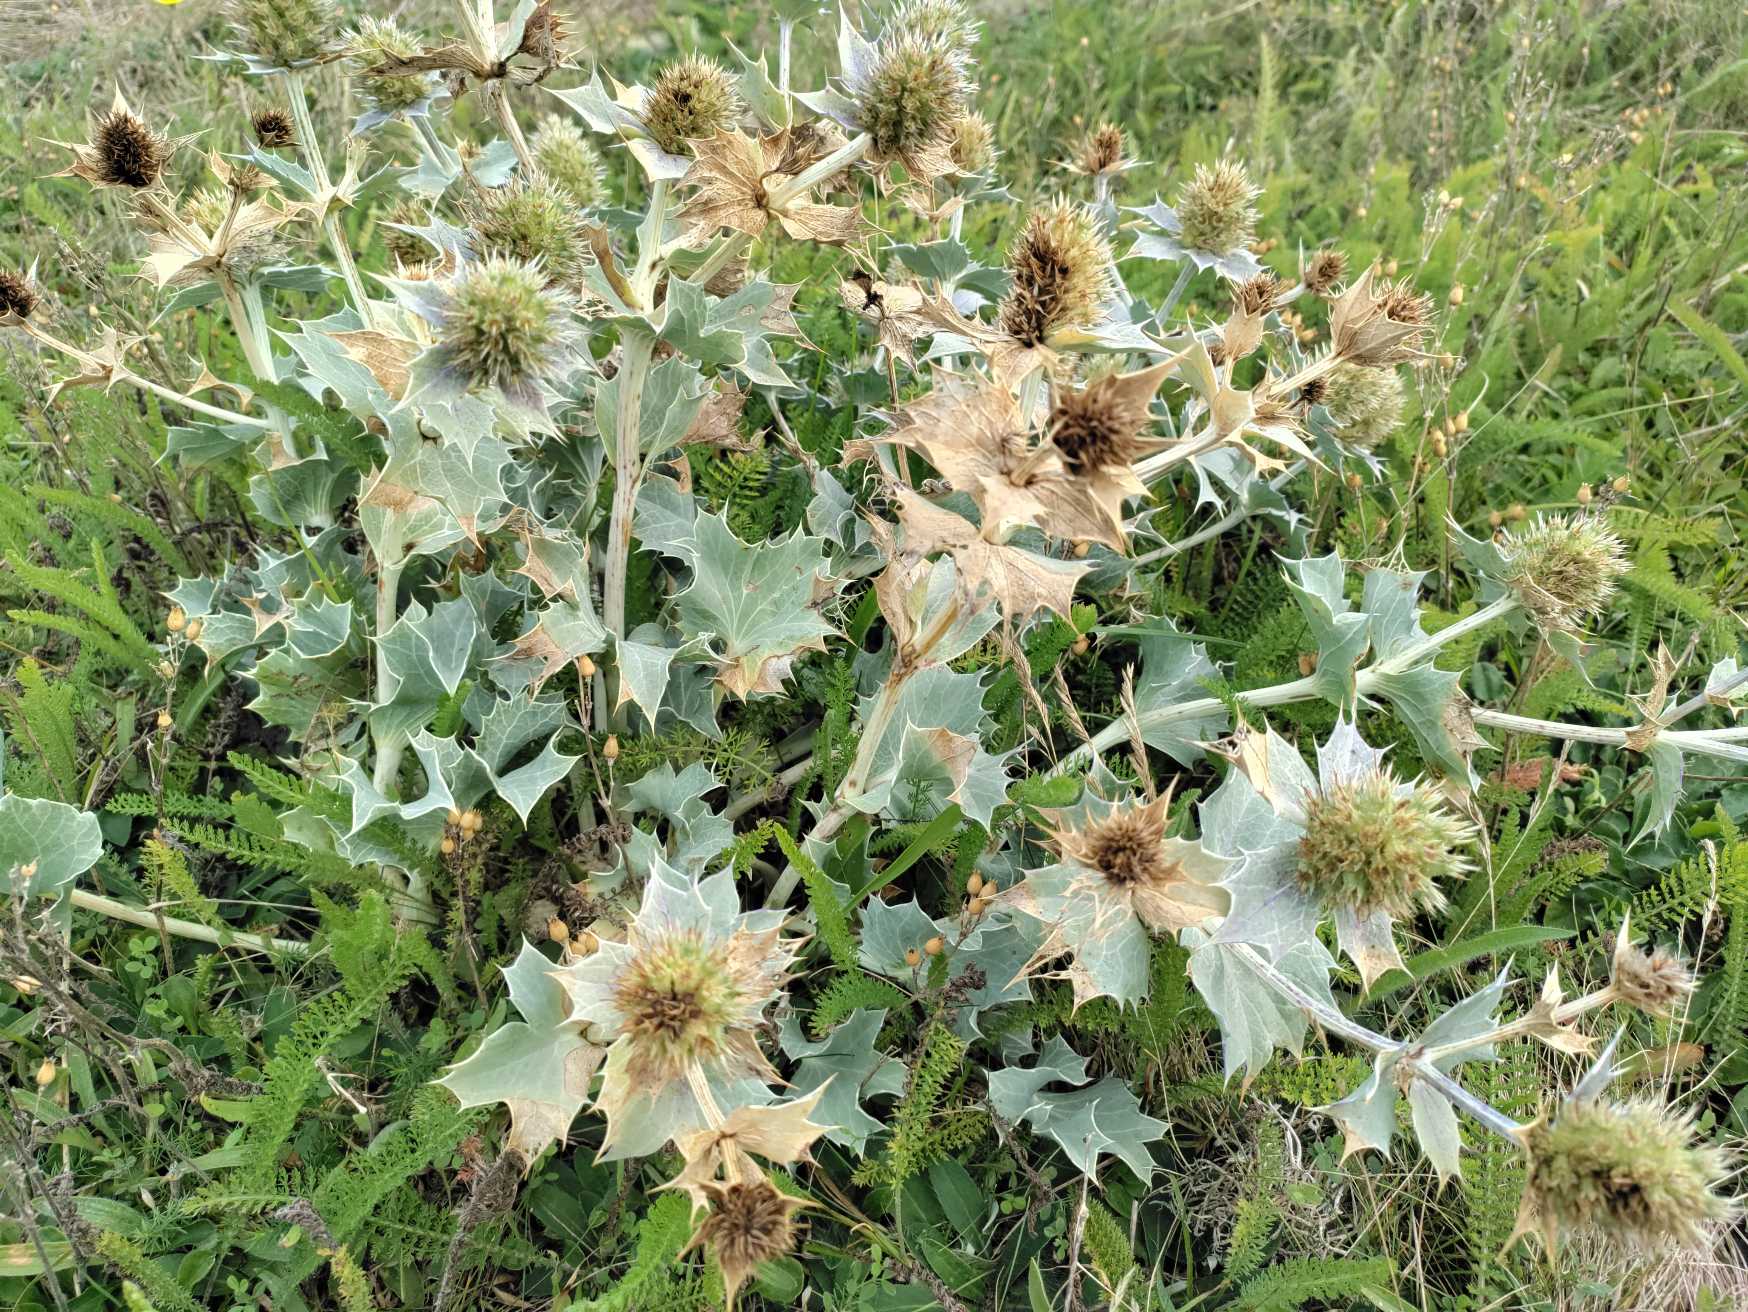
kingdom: Plantae
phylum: Tracheophyta
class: Magnoliopsida
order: Apiales
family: Apiaceae
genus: Eryngium
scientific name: Eryngium maritimum
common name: Strand-mandstro
